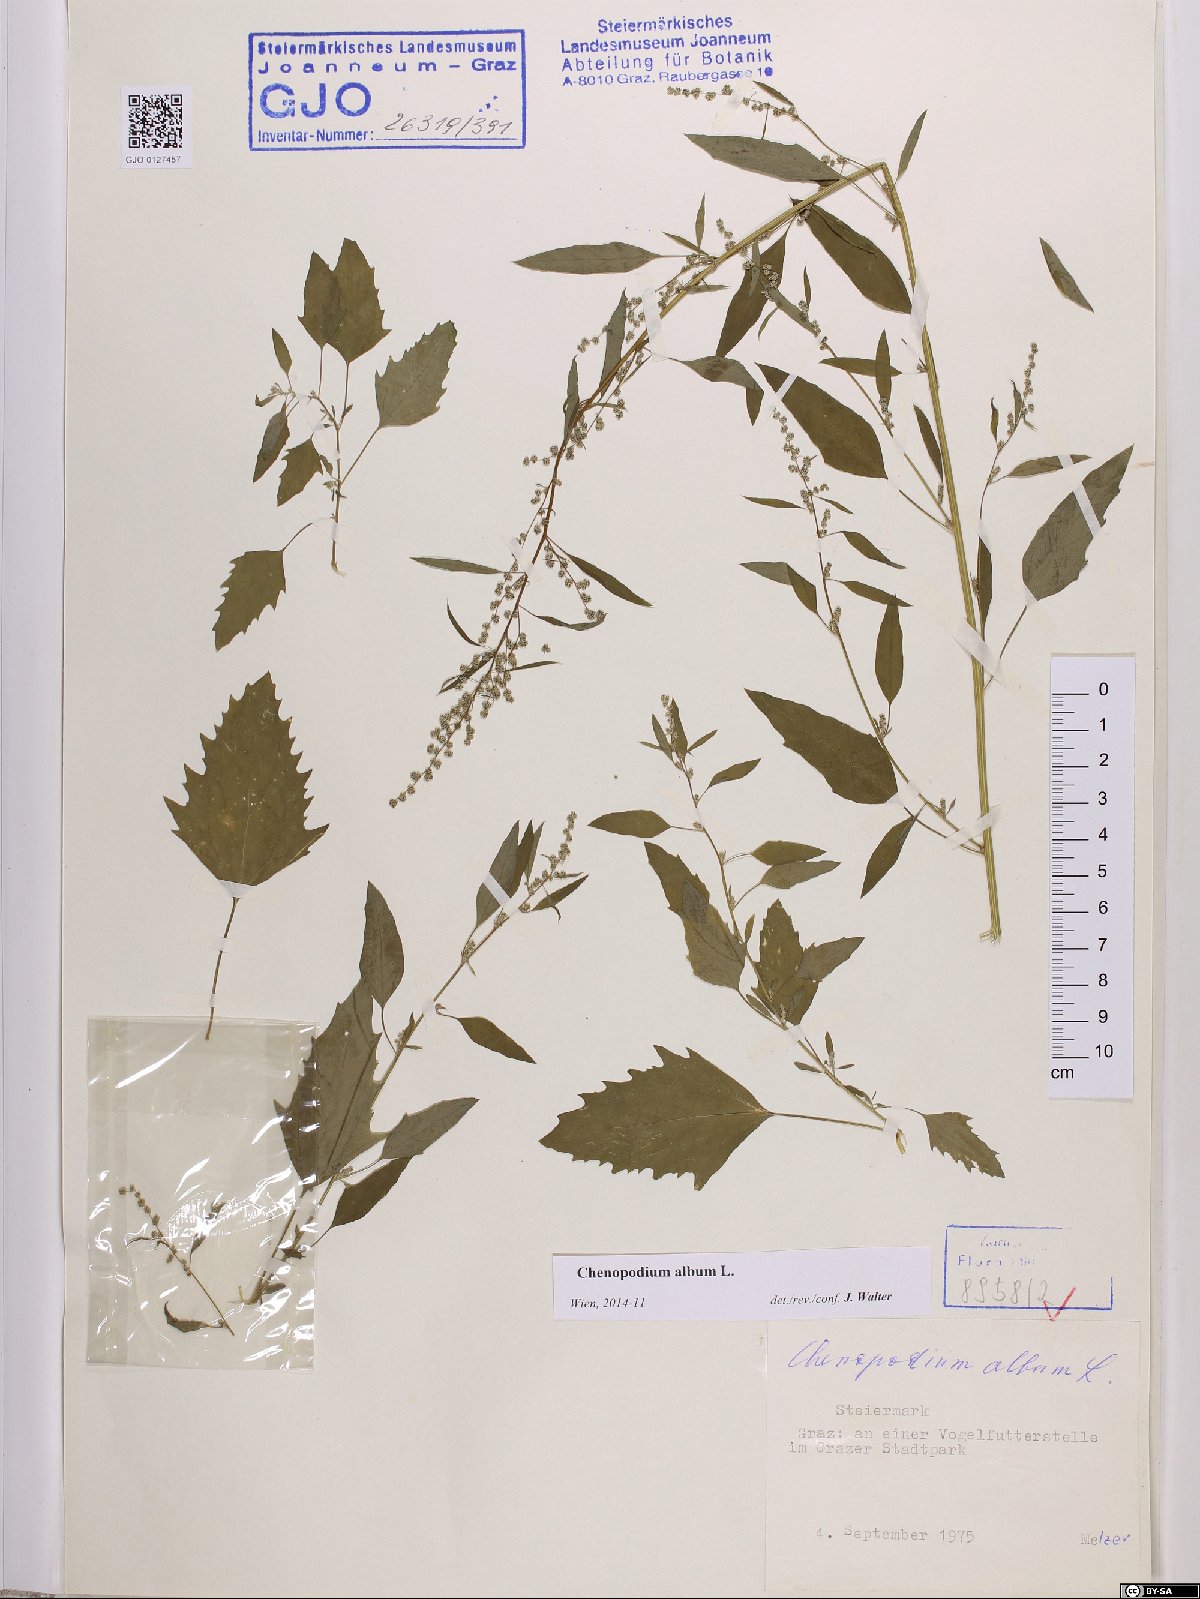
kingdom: Plantae
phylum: Tracheophyta
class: Magnoliopsida
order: Caryophyllales
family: Amaranthaceae
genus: Chenopodium
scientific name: Chenopodium album
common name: Fat-hen
